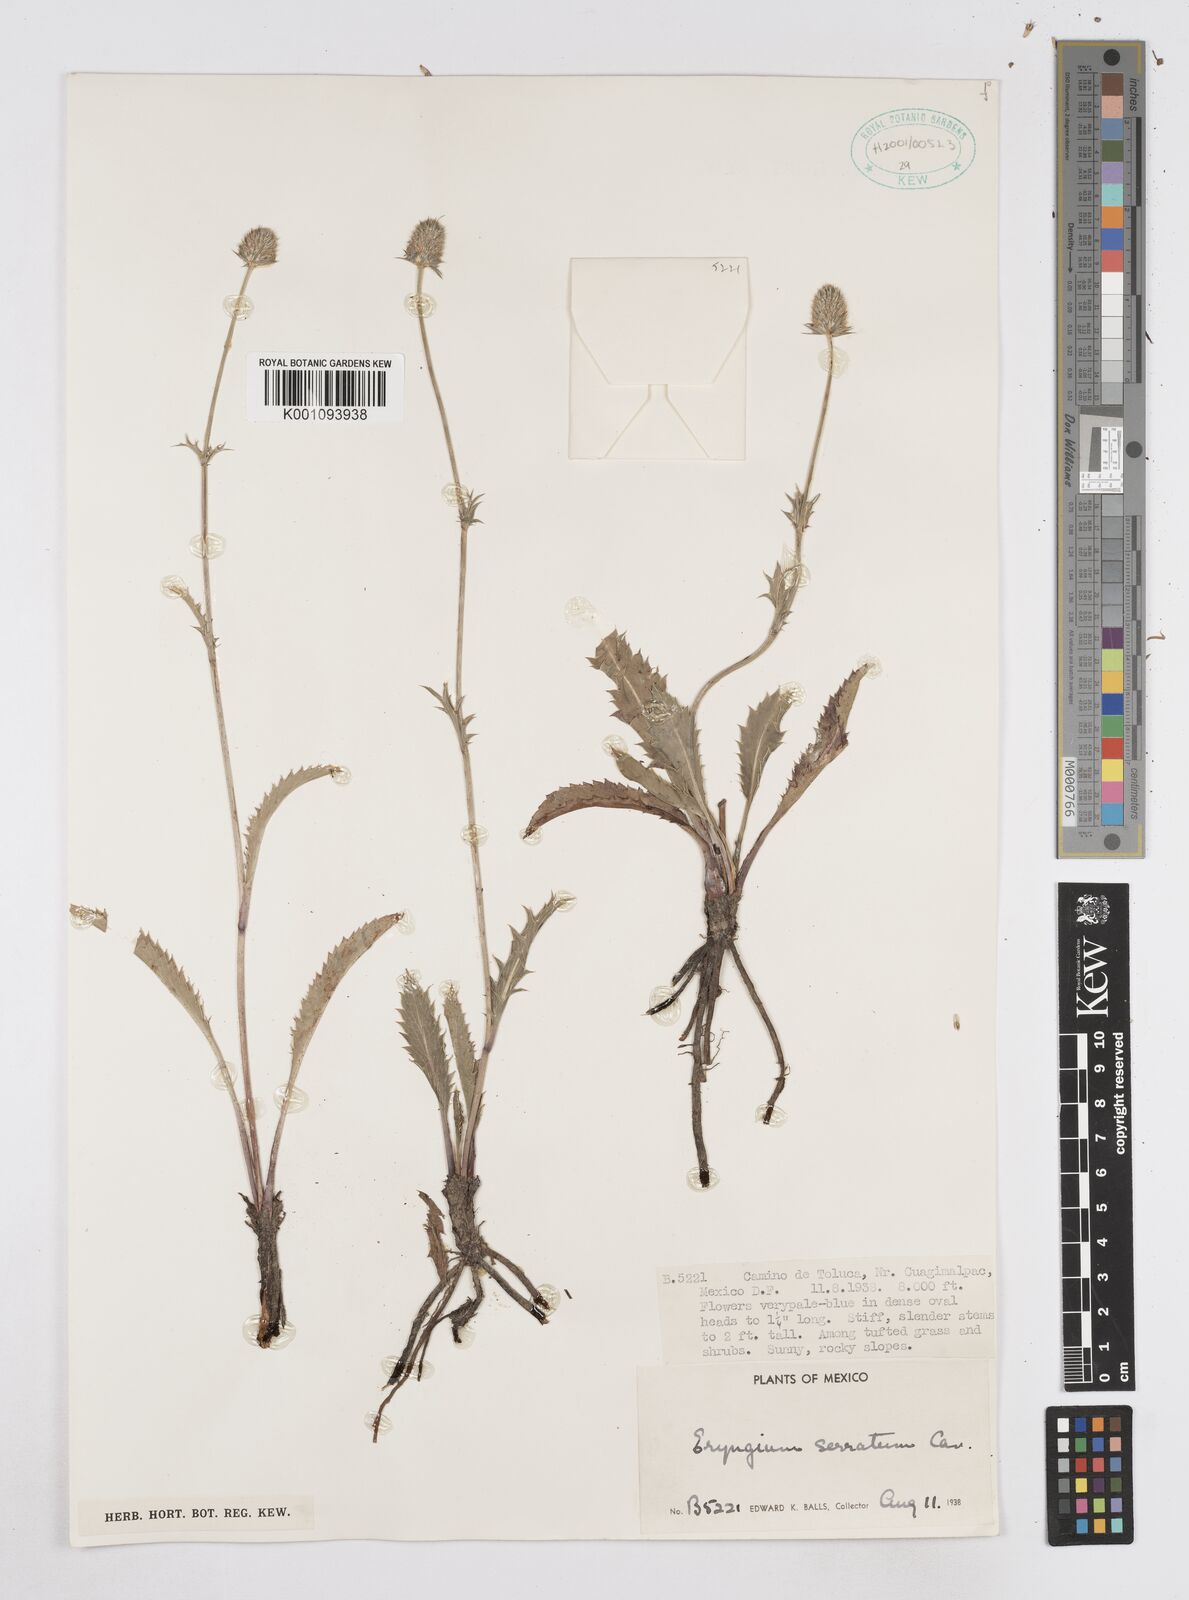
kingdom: Plantae
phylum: Tracheophyta
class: Magnoliopsida
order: Apiales
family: Apiaceae
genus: Eryngium
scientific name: Eryngium serratum
